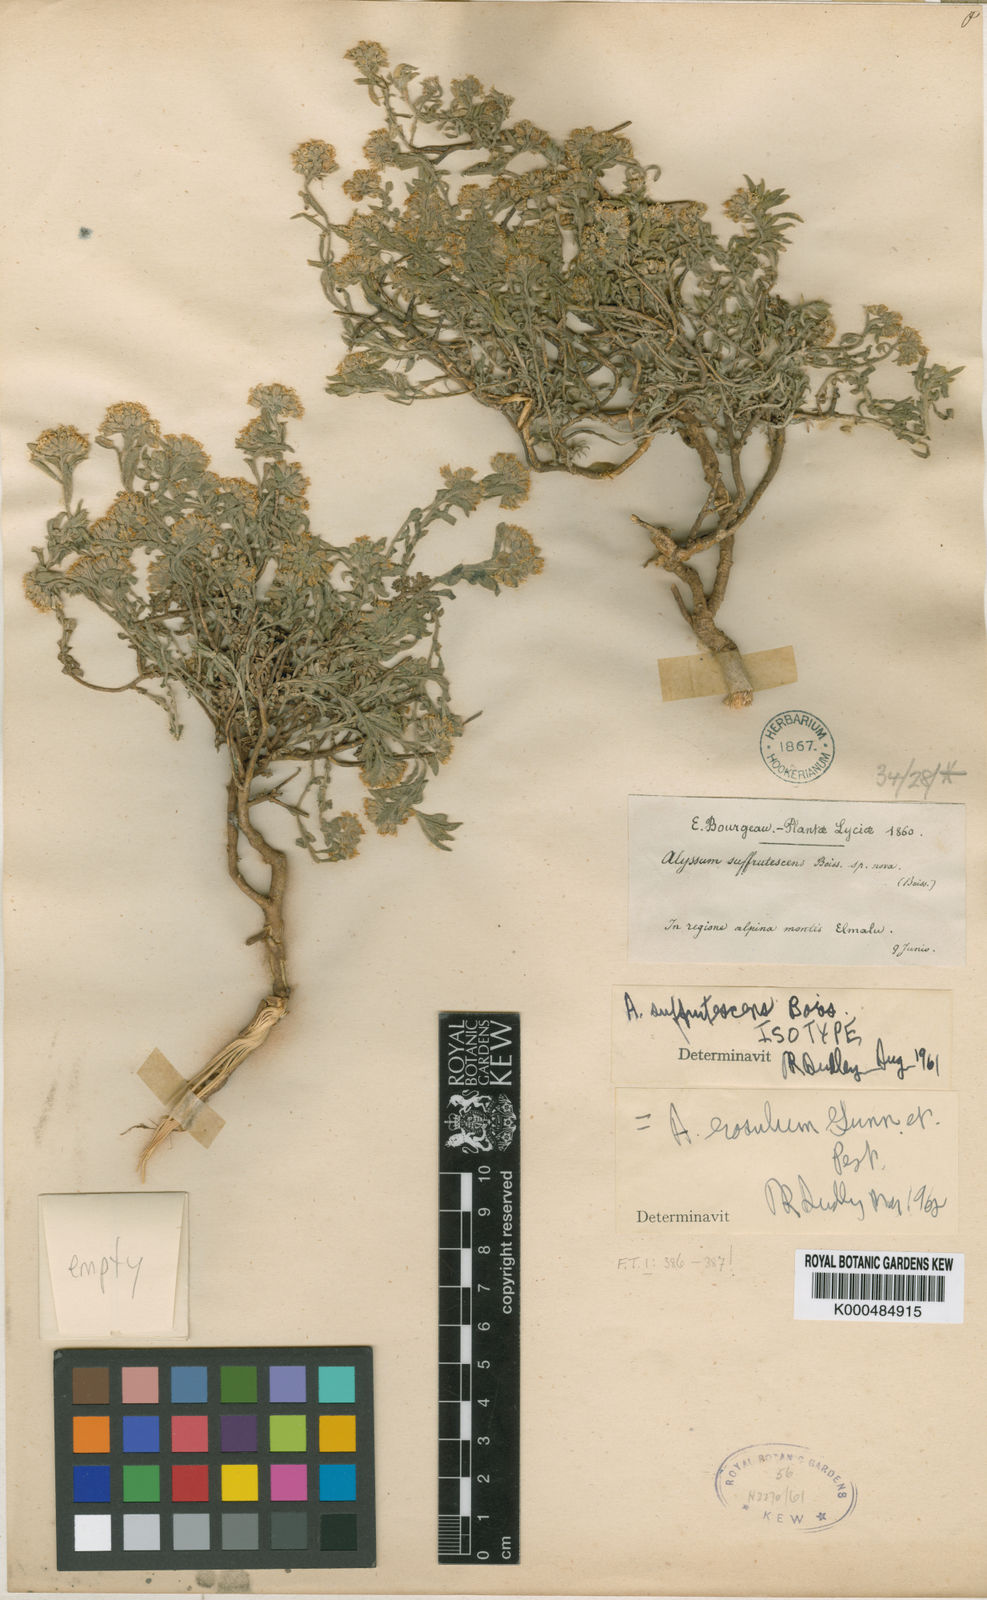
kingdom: Plantae
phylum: Tracheophyta
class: Magnoliopsida
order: Brassicales
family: Brassicaceae
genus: Alyssum
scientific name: Alyssum erosulum
